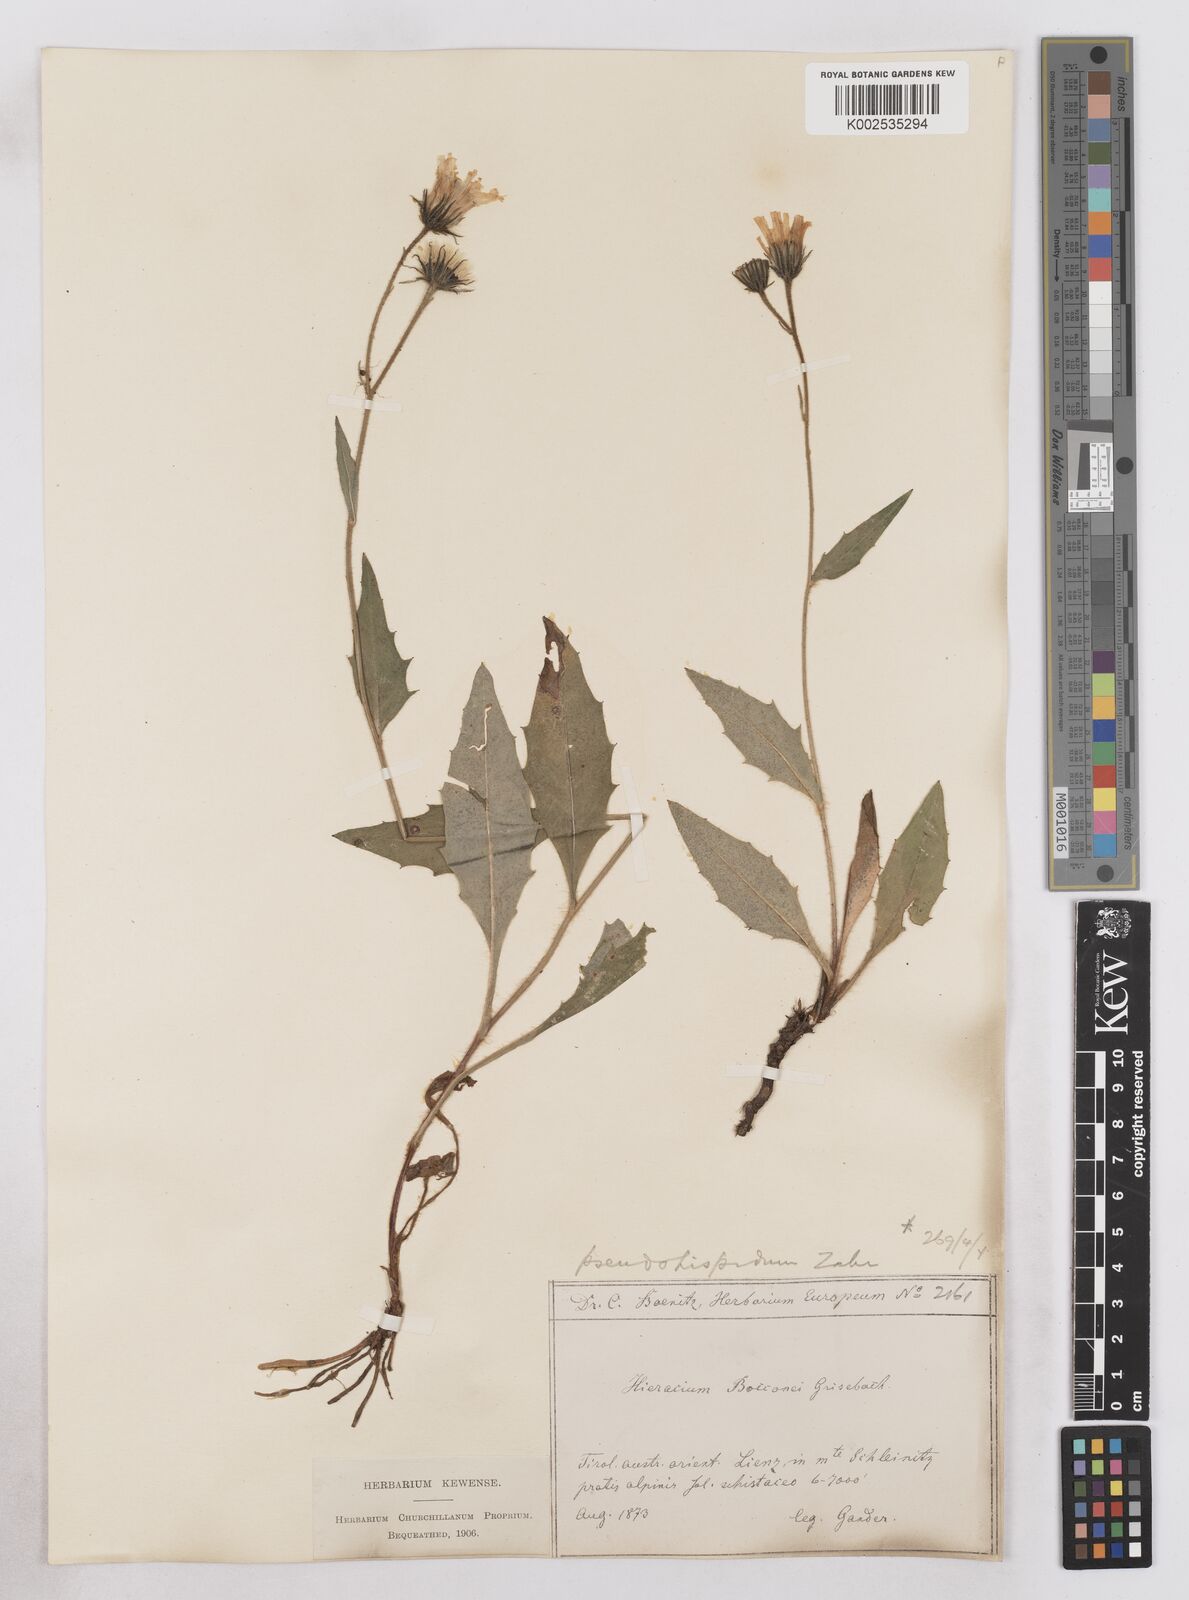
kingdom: Plantae
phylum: Tracheophyta
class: Magnoliopsida
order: Asterales
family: Asteraceae
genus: Hieracium
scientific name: Hieracium bocconei
